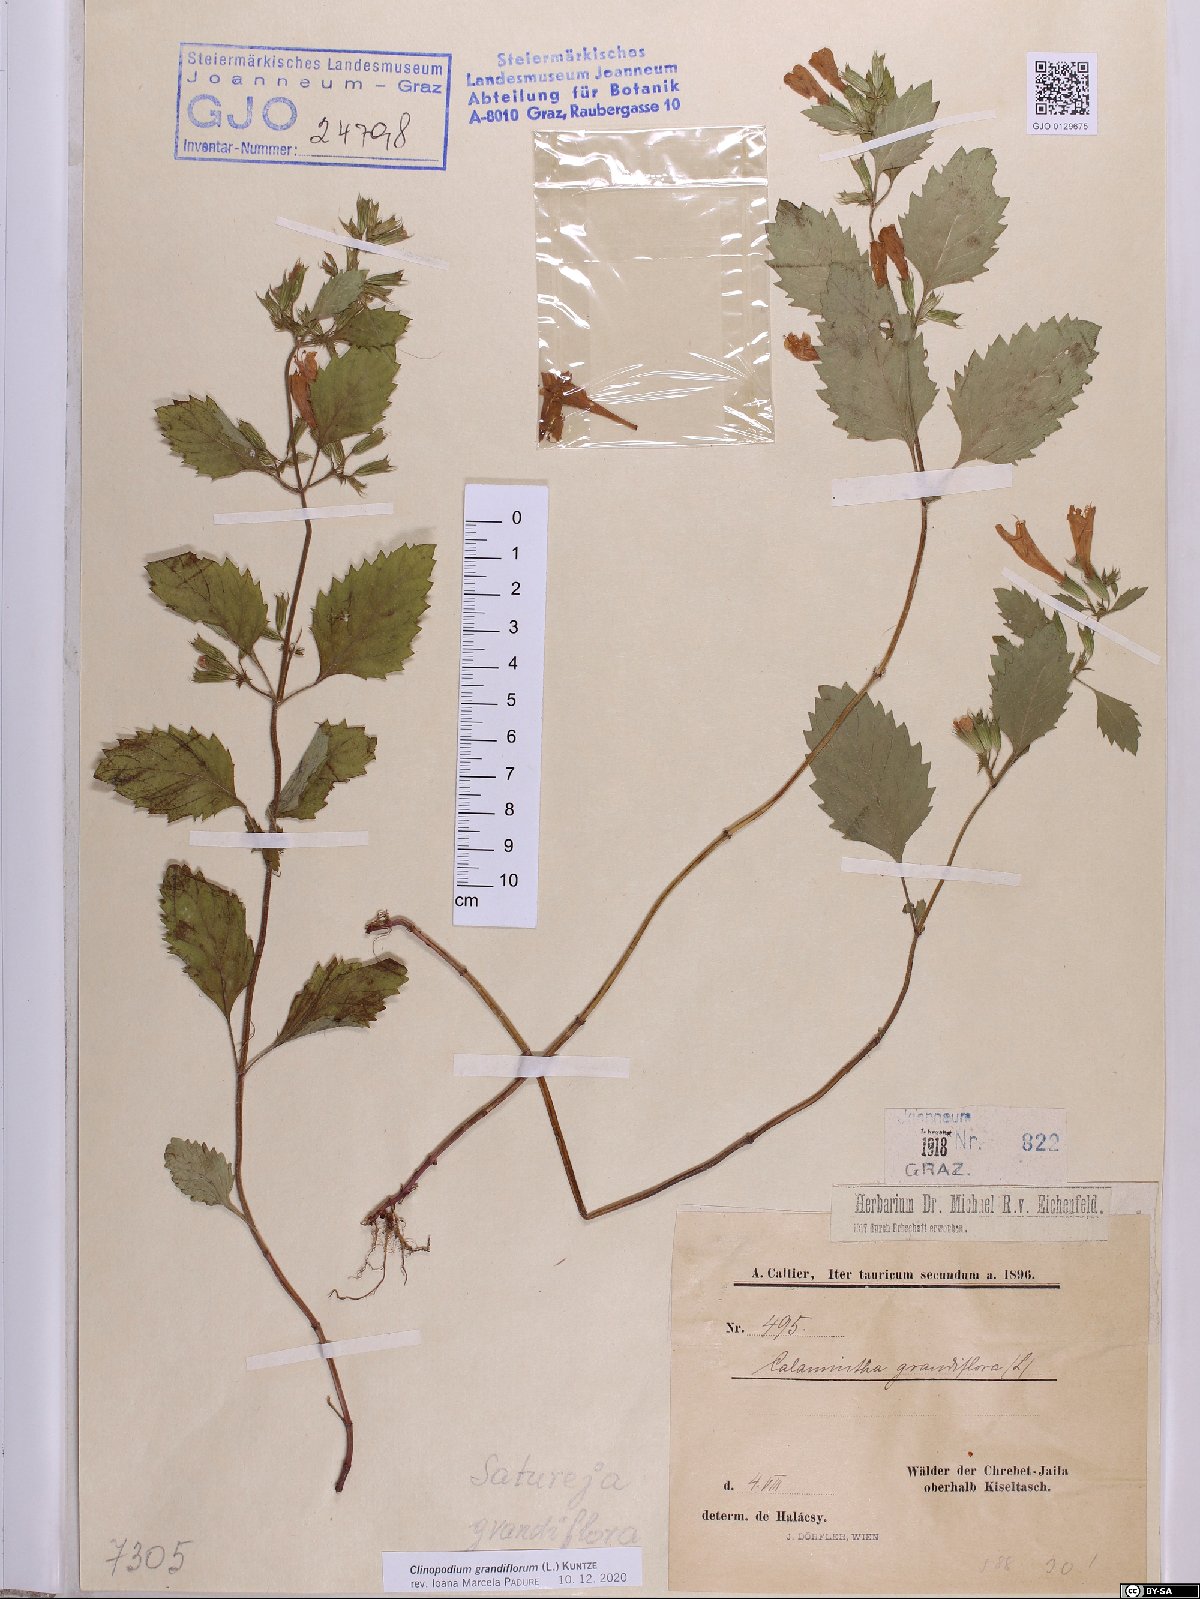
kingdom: Plantae
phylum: Tracheophyta
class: Magnoliopsida
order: Lamiales
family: Lamiaceae
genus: Clinopodium
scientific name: Clinopodium grandiflorum
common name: Greater calamint
